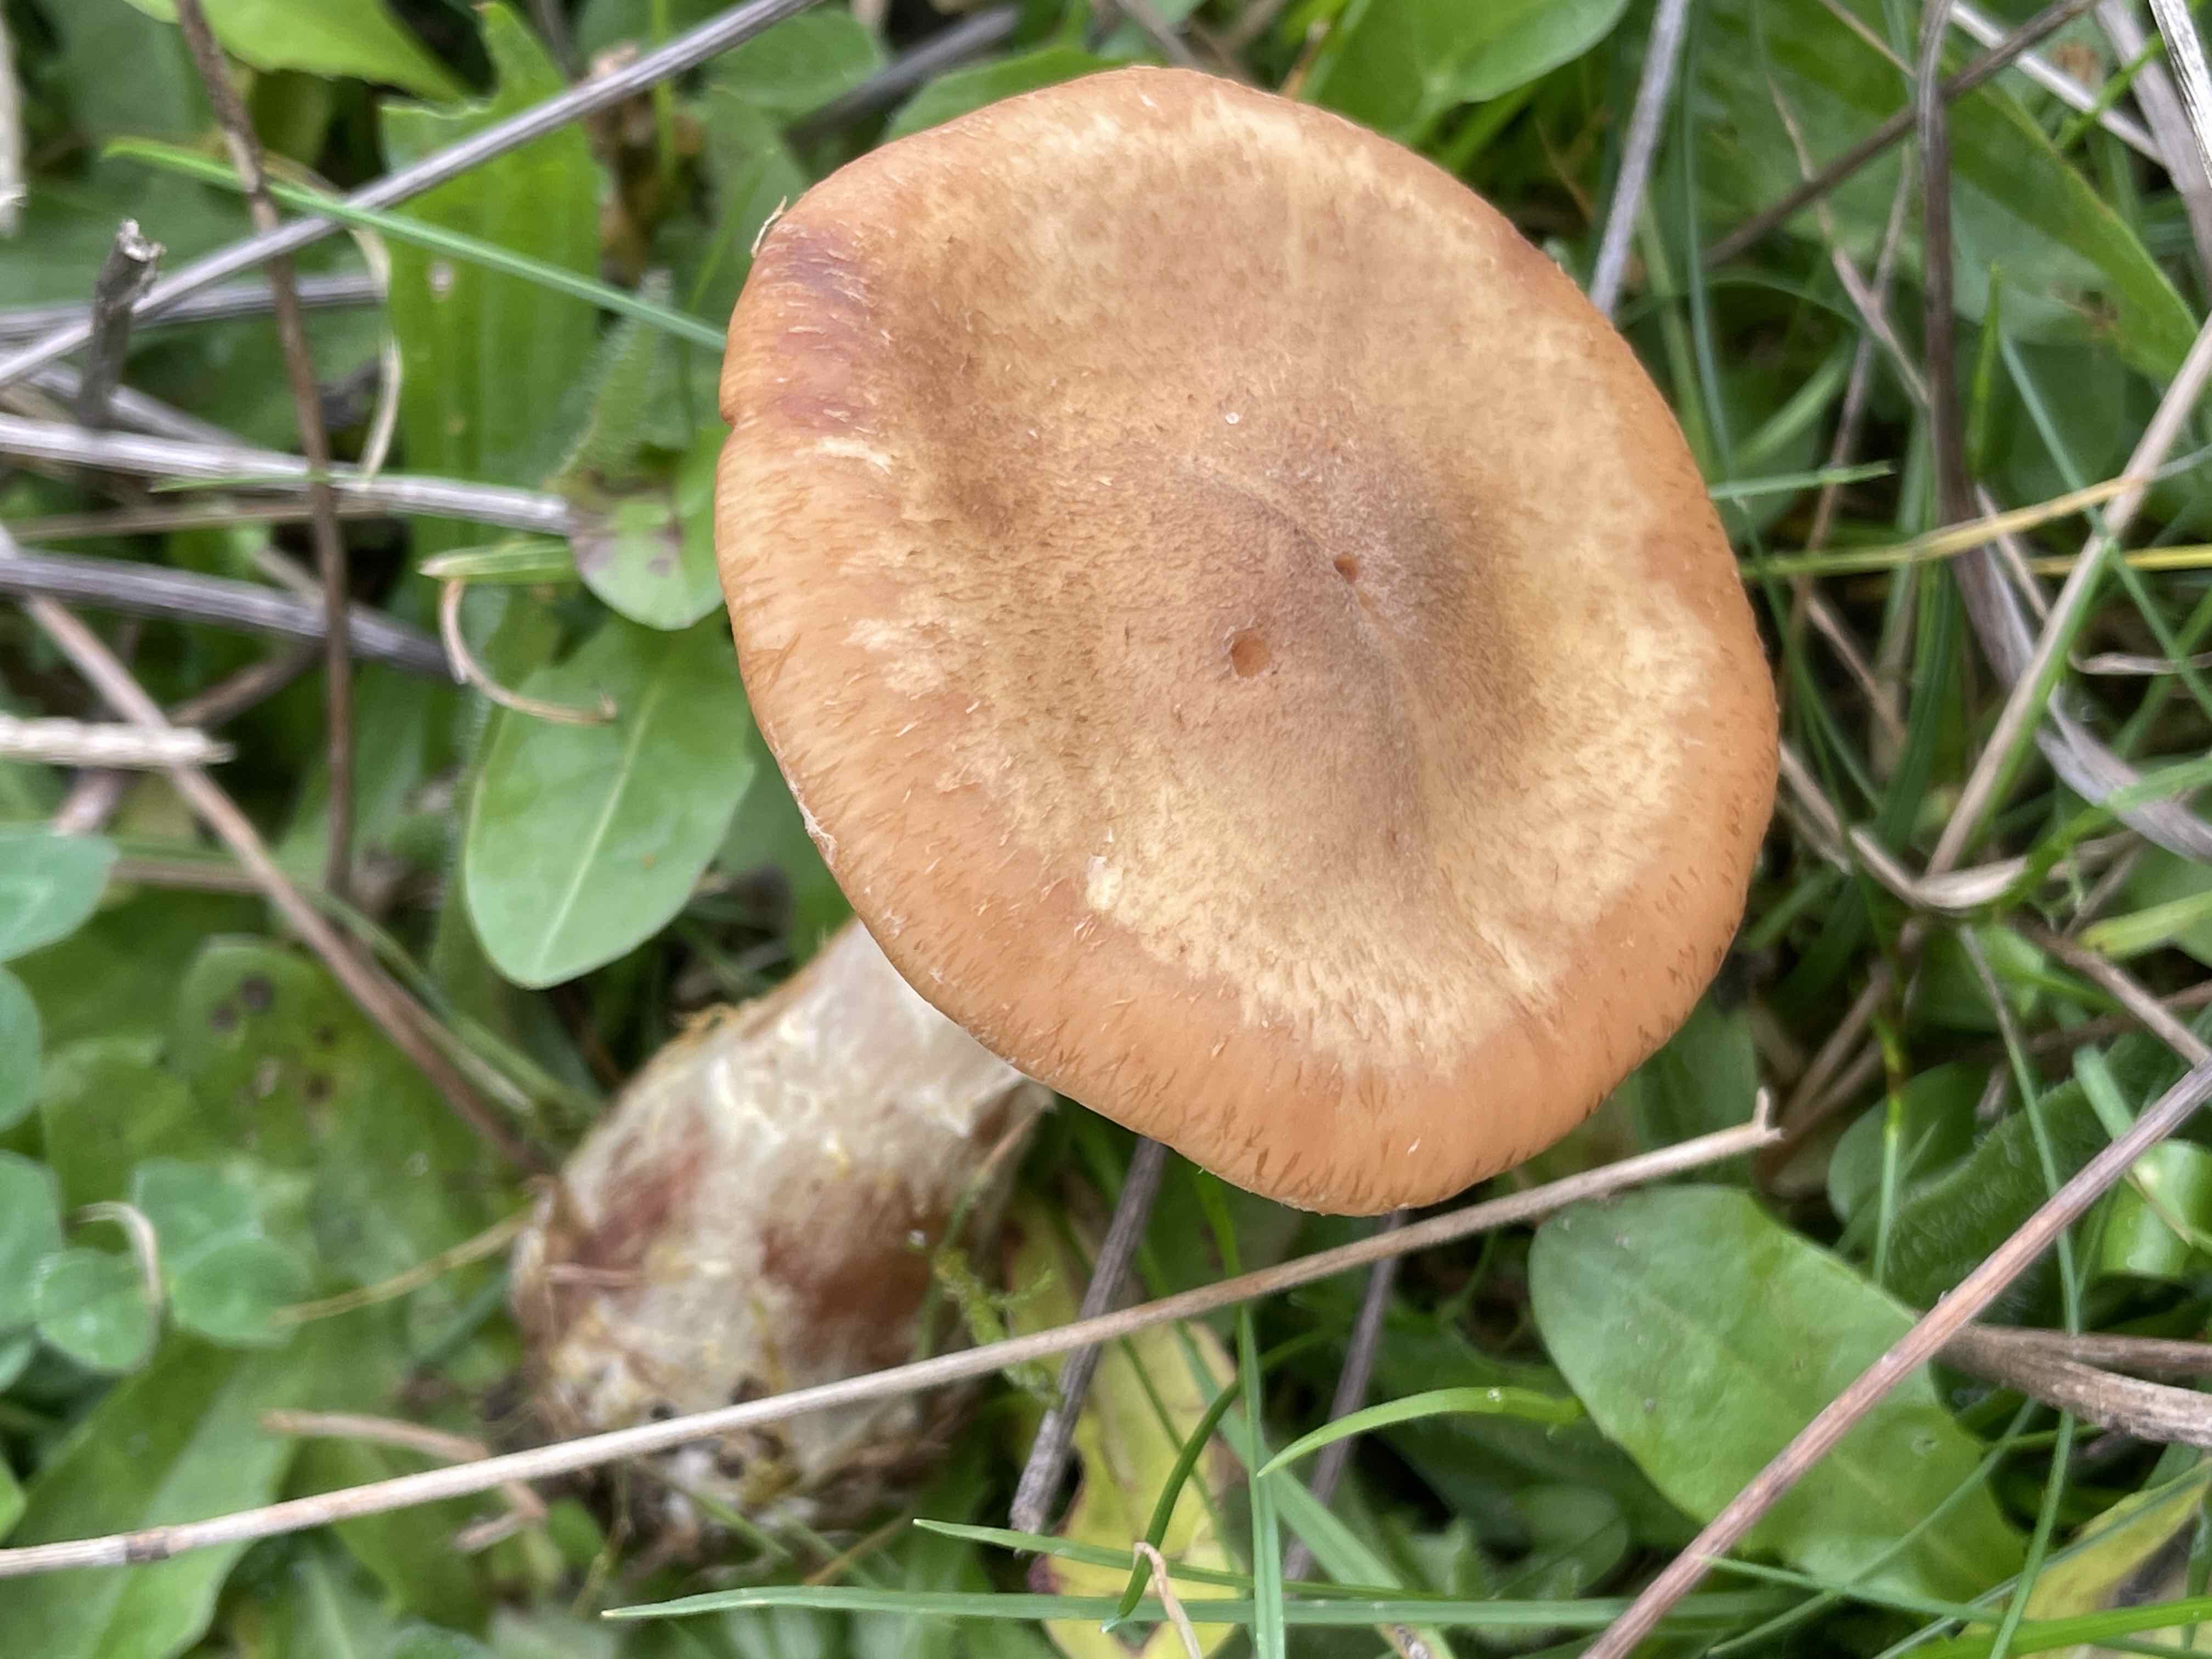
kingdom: Fungi
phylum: Basidiomycota
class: Agaricomycetes
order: Agaricales
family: Physalacriaceae
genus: Armillaria
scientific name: Armillaria lutea
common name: køllestokket honningsvamp
